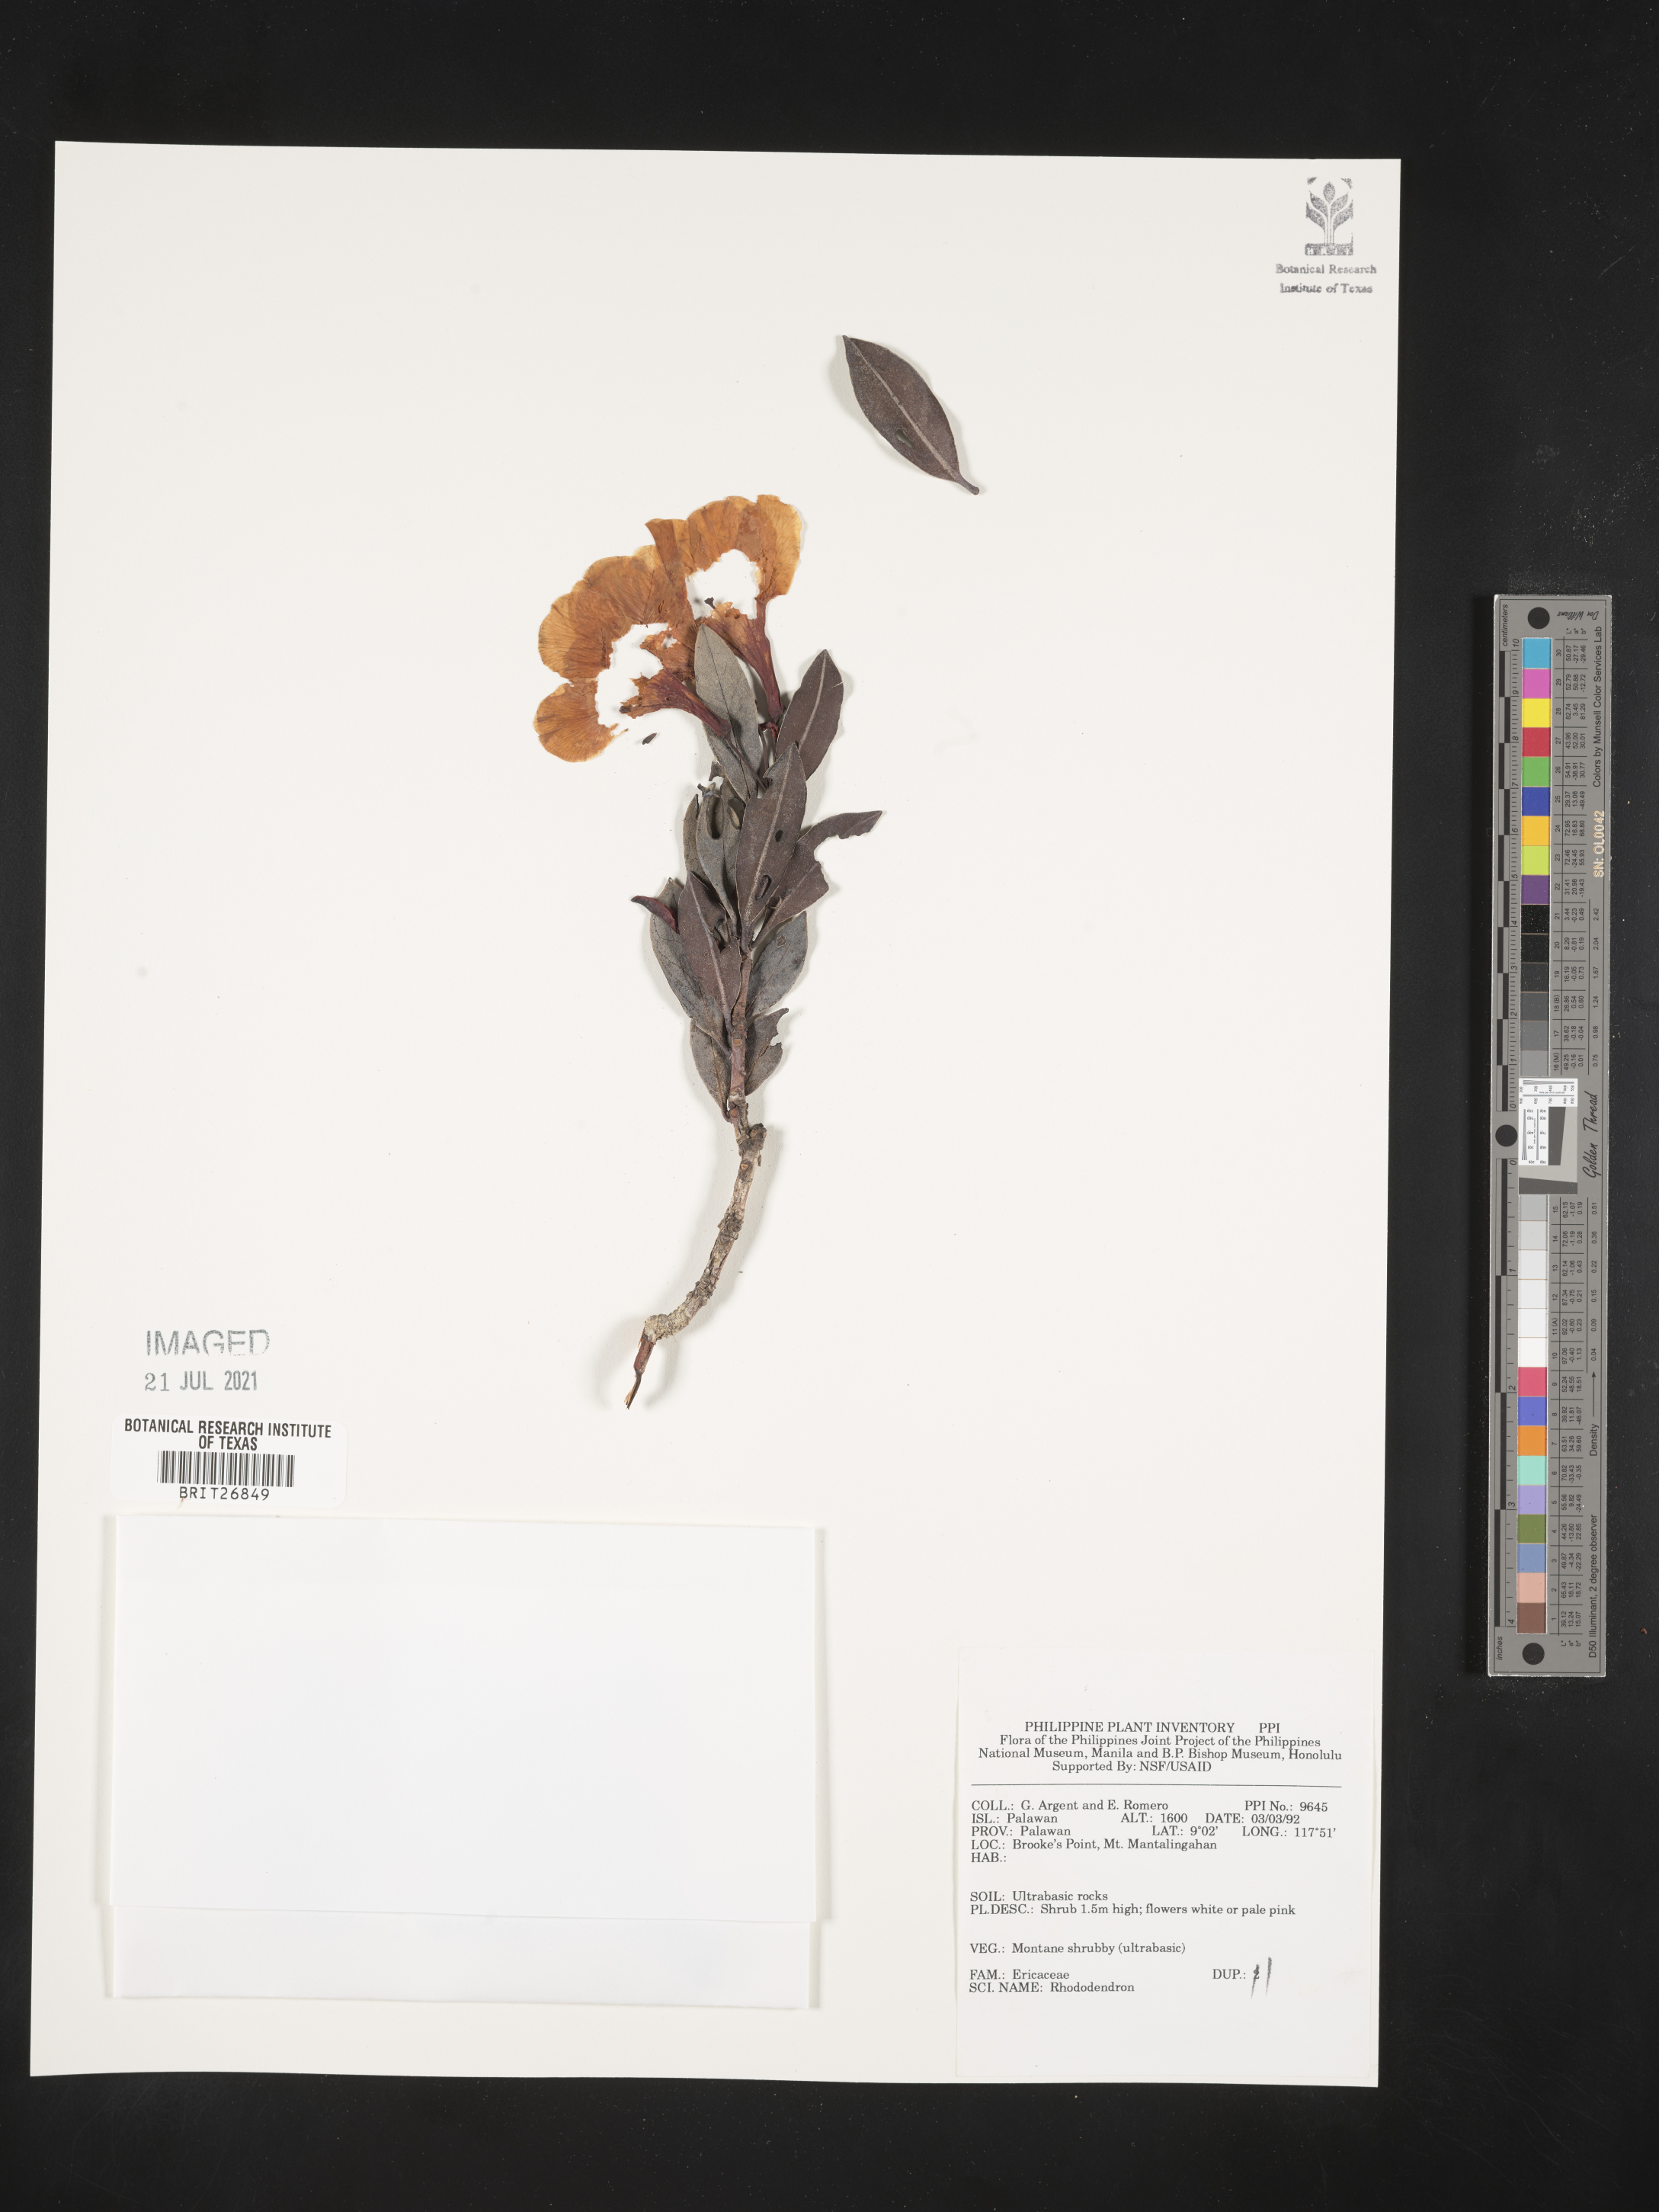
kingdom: Plantae
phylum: Tracheophyta
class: Magnoliopsida
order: Ericales
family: Ericaceae
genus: Rhododendron
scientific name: Rhododendron
